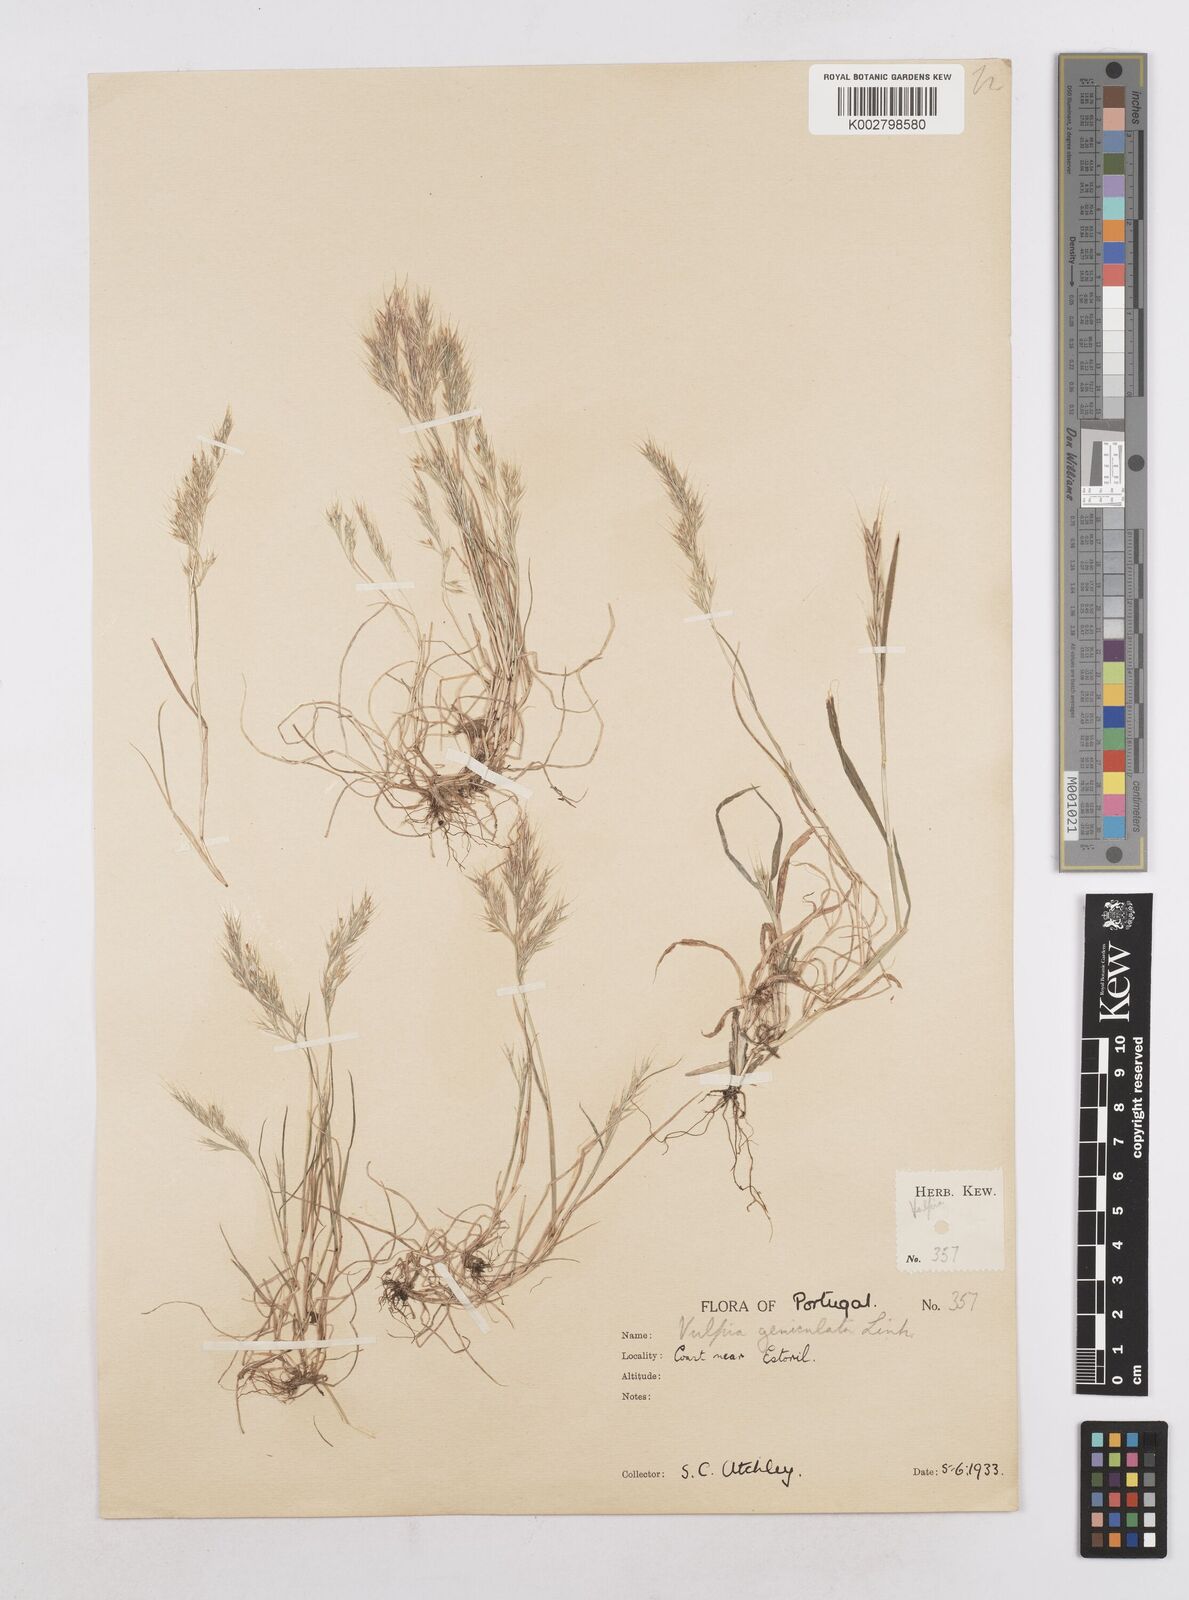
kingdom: Plantae
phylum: Tracheophyta
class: Liliopsida
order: Poales
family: Poaceae
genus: Festuca
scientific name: Festuca geniculata
